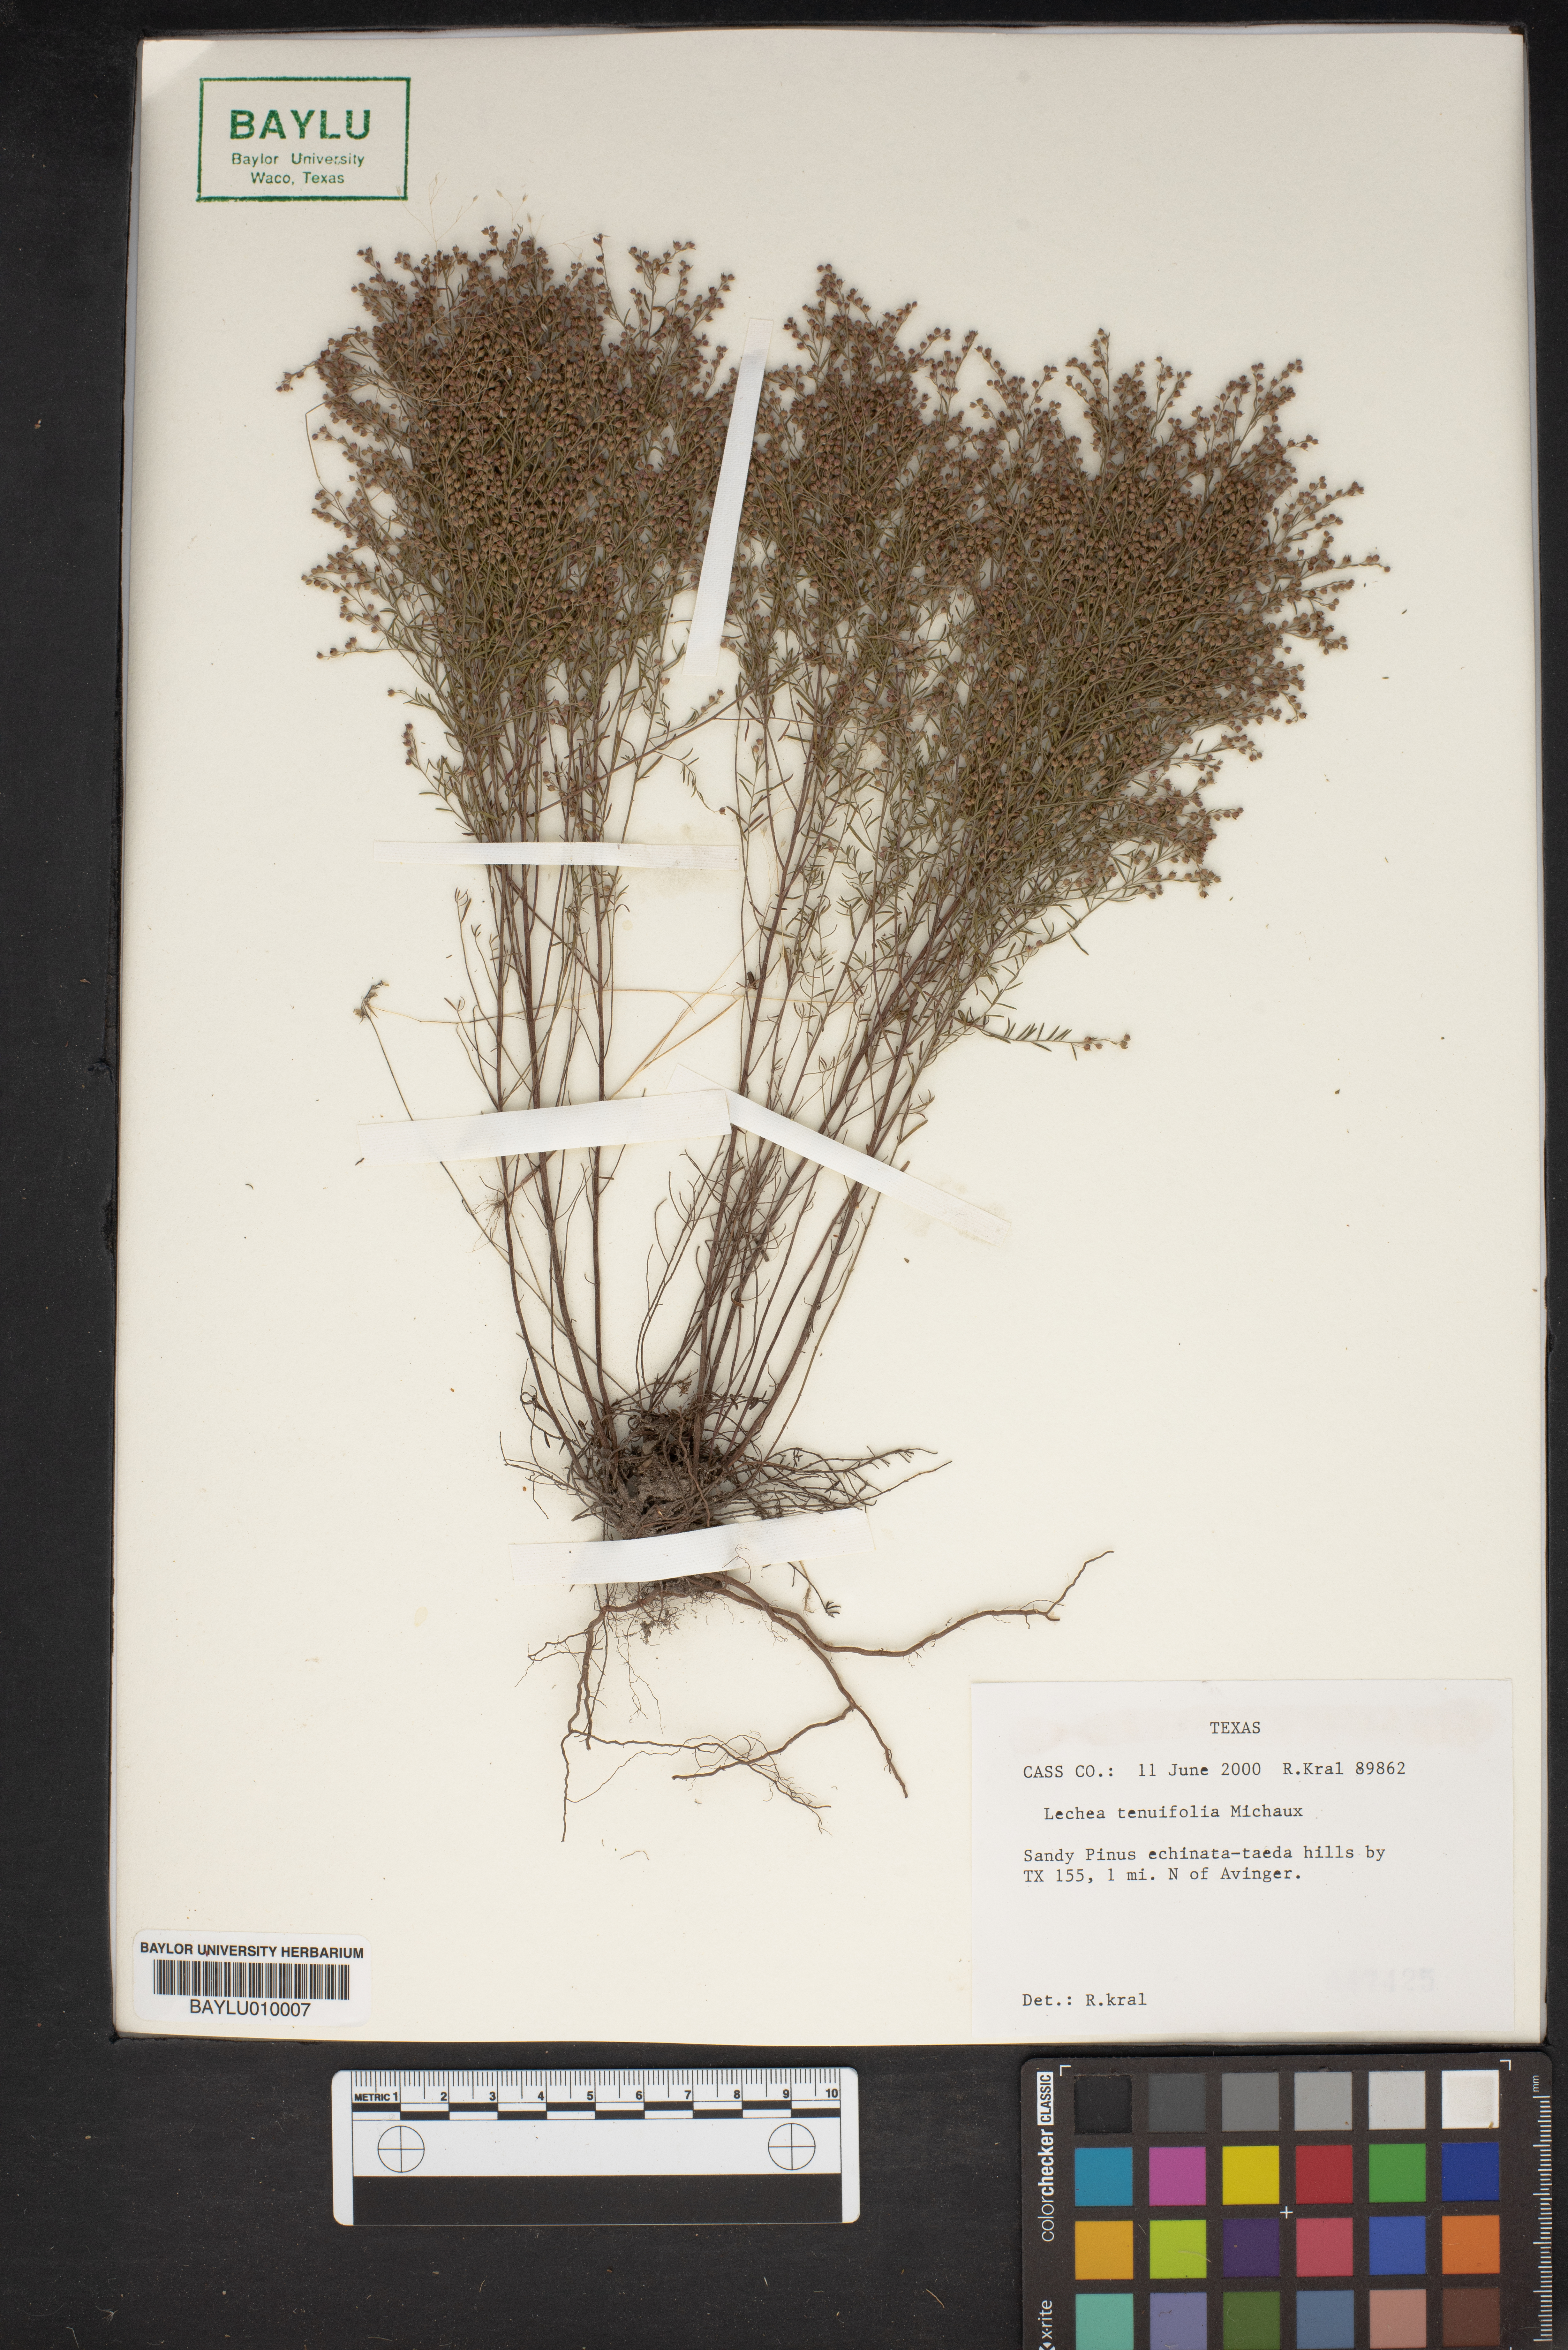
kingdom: Plantae
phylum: Tracheophyta
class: Magnoliopsida
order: Malvales
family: Cistaceae
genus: Lechea
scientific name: Lechea tenuifolia
